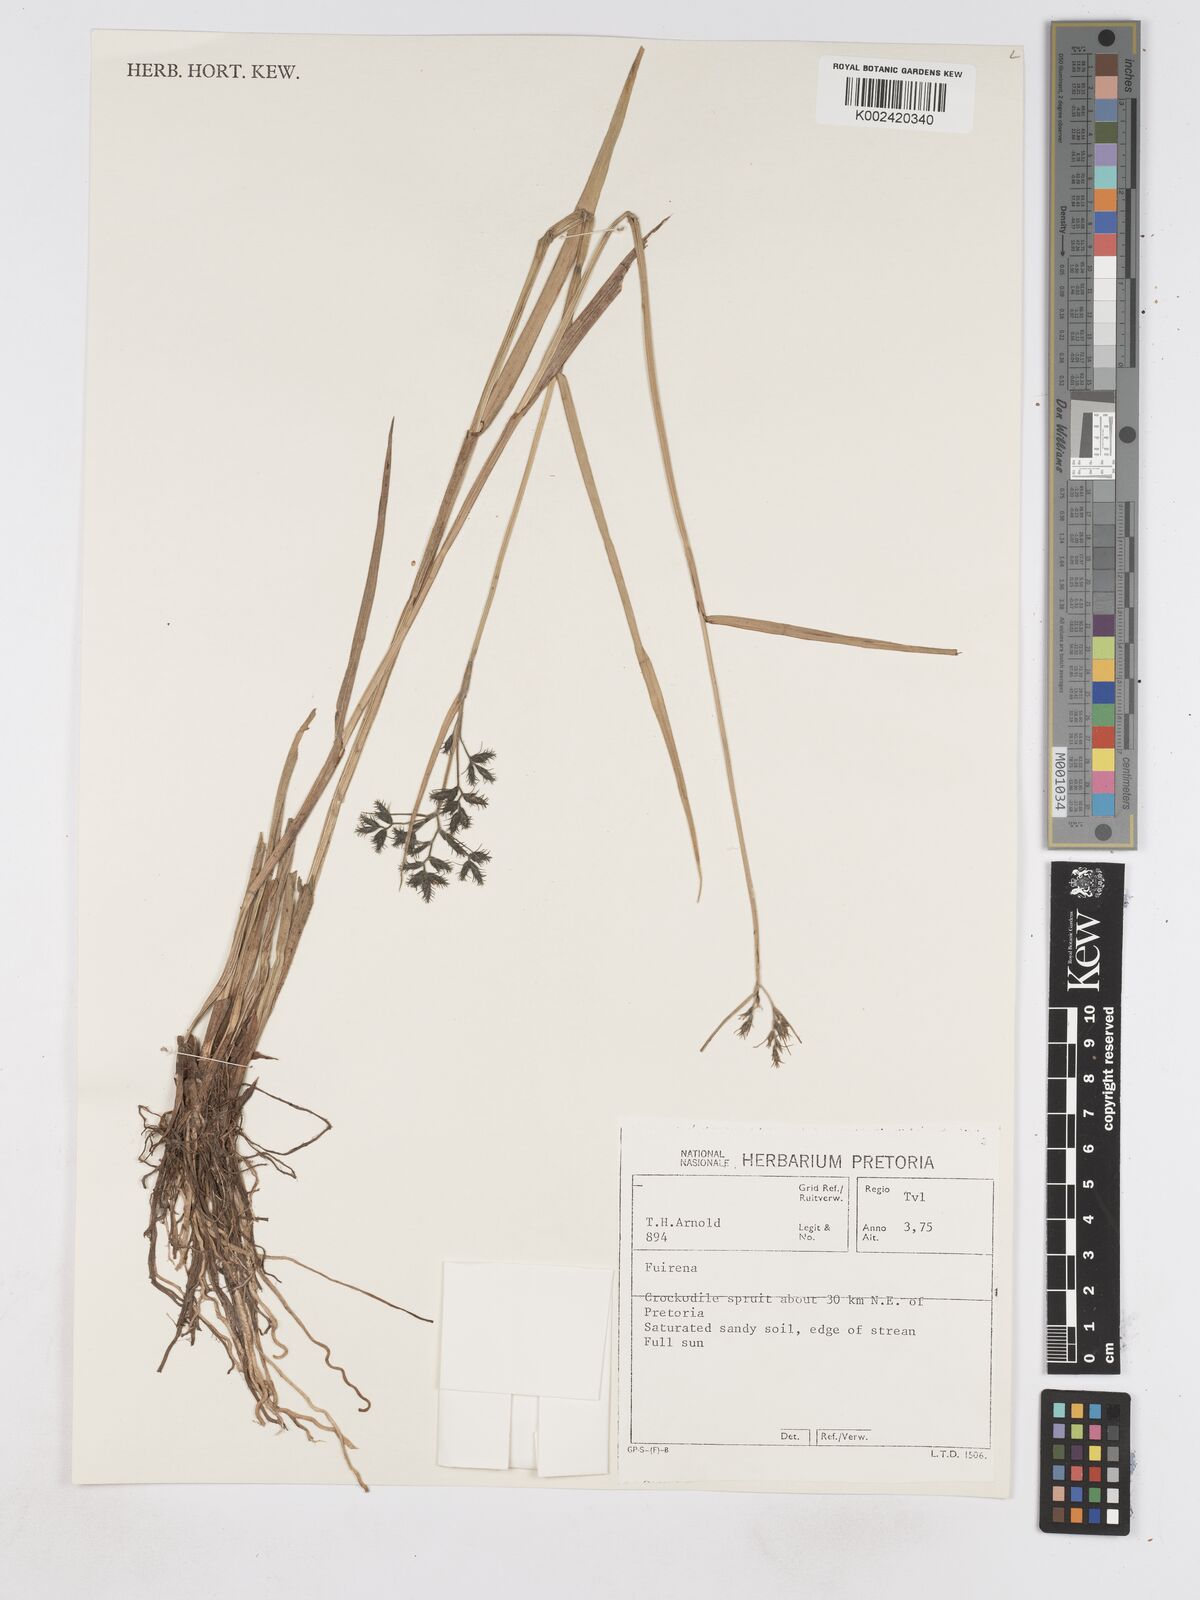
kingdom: Plantae
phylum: Tracheophyta
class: Liliopsida
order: Poales
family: Cyperaceae
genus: Fuirena
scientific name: Fuirena
